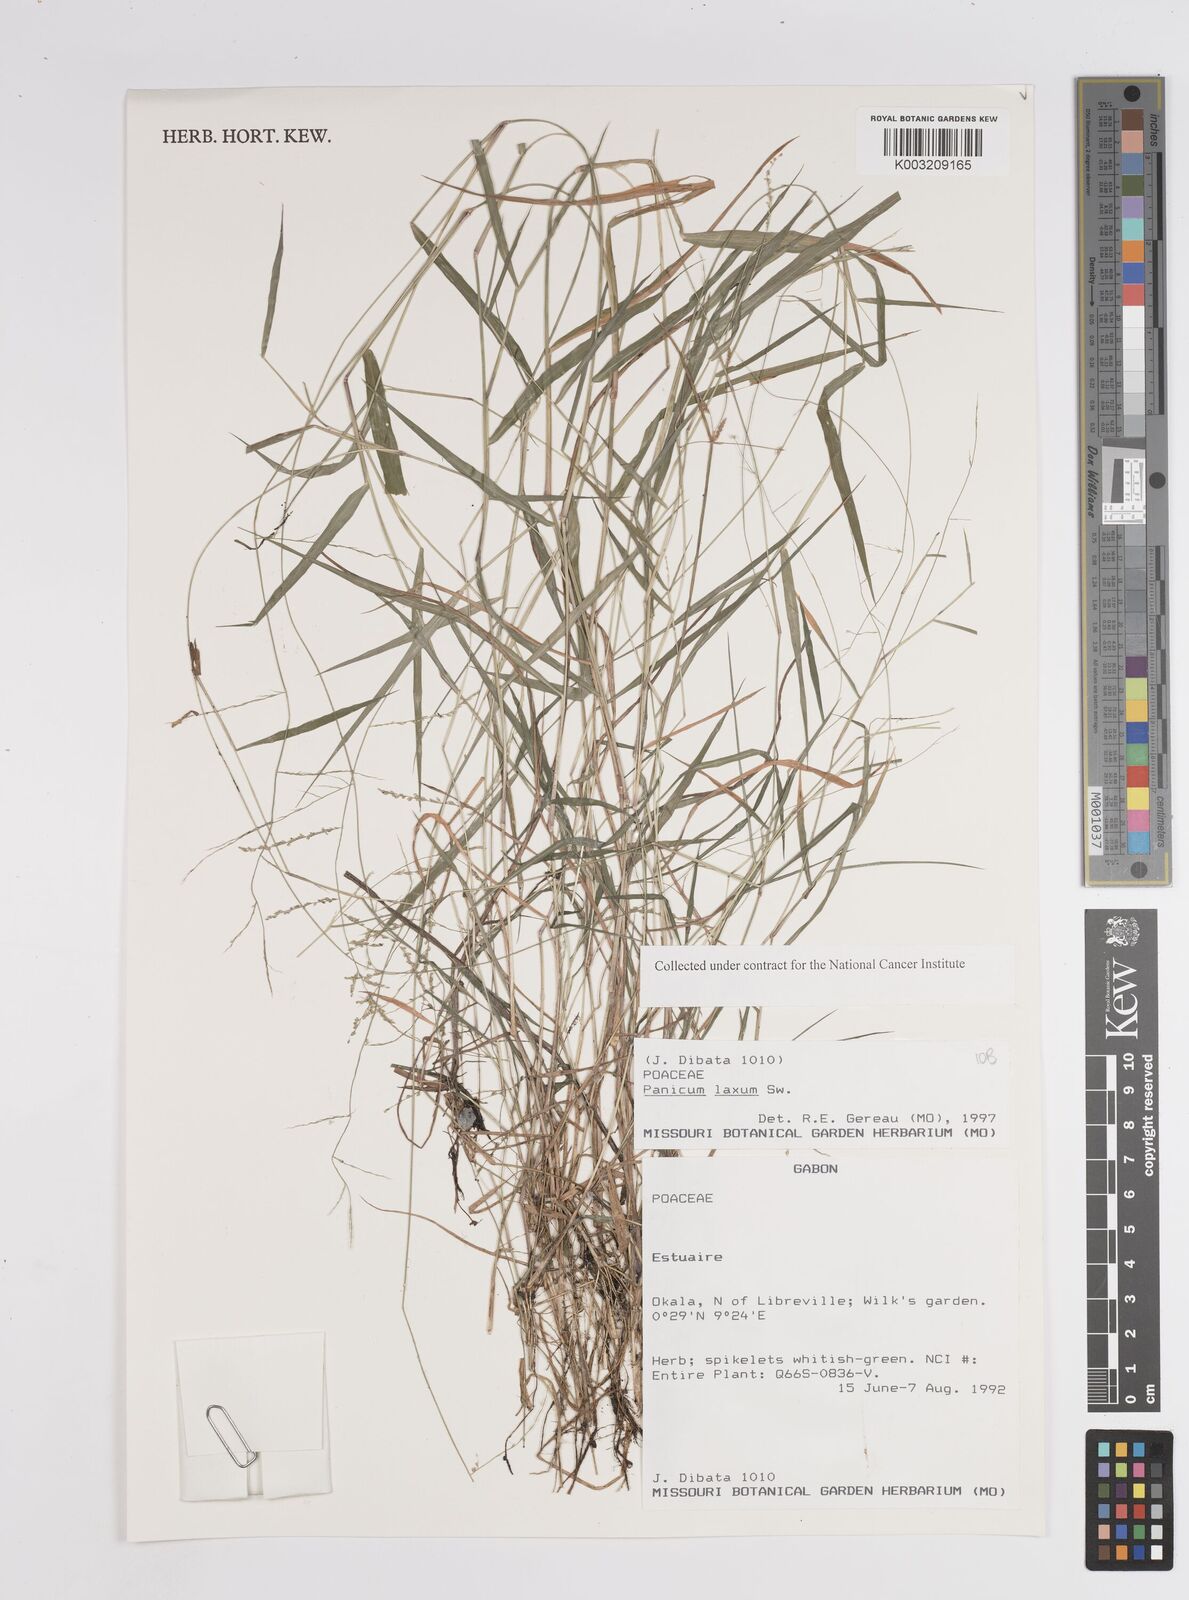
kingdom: Plantae
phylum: Tracheophyta
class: Liliopsida
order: Poales
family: Poaceae
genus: Steinchisma
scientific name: Steinchisma laxum
